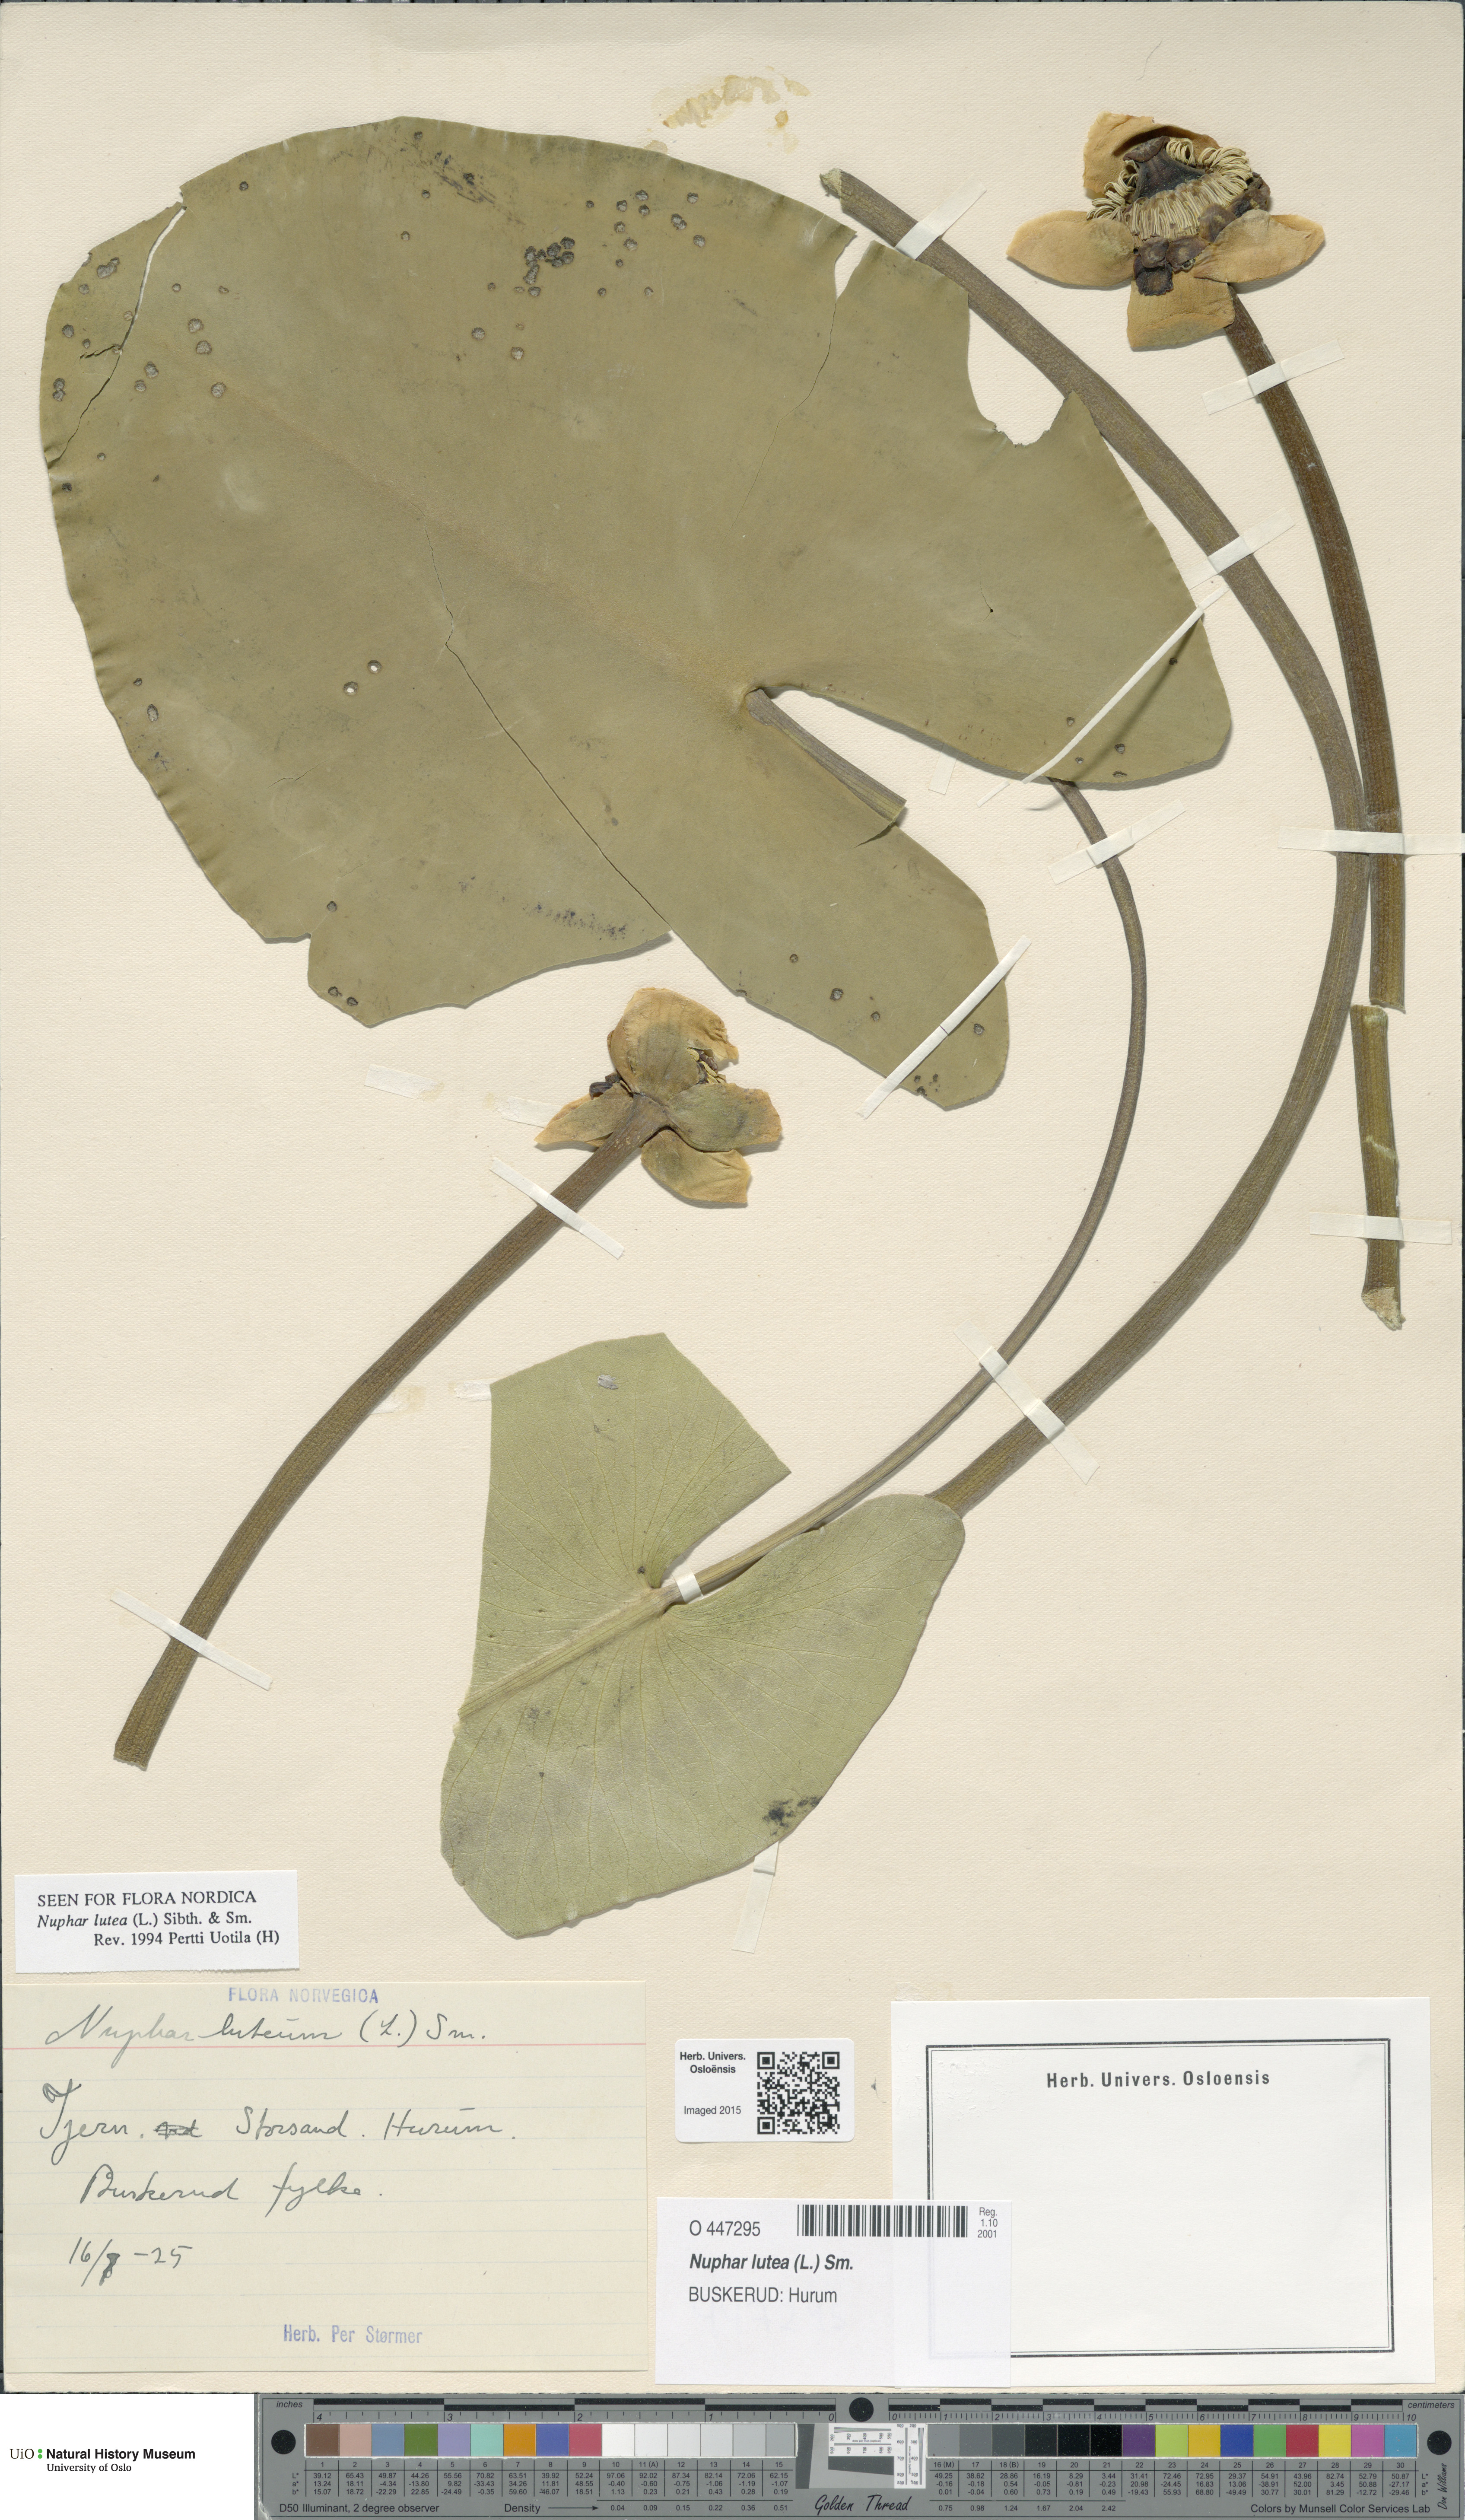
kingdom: Plantae
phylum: Tracheophyta
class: Magnoliopsida
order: Nymphaeales
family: Nymphaeaceae
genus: Nuphar
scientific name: Nuphar lutea
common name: Yellow water-lily
